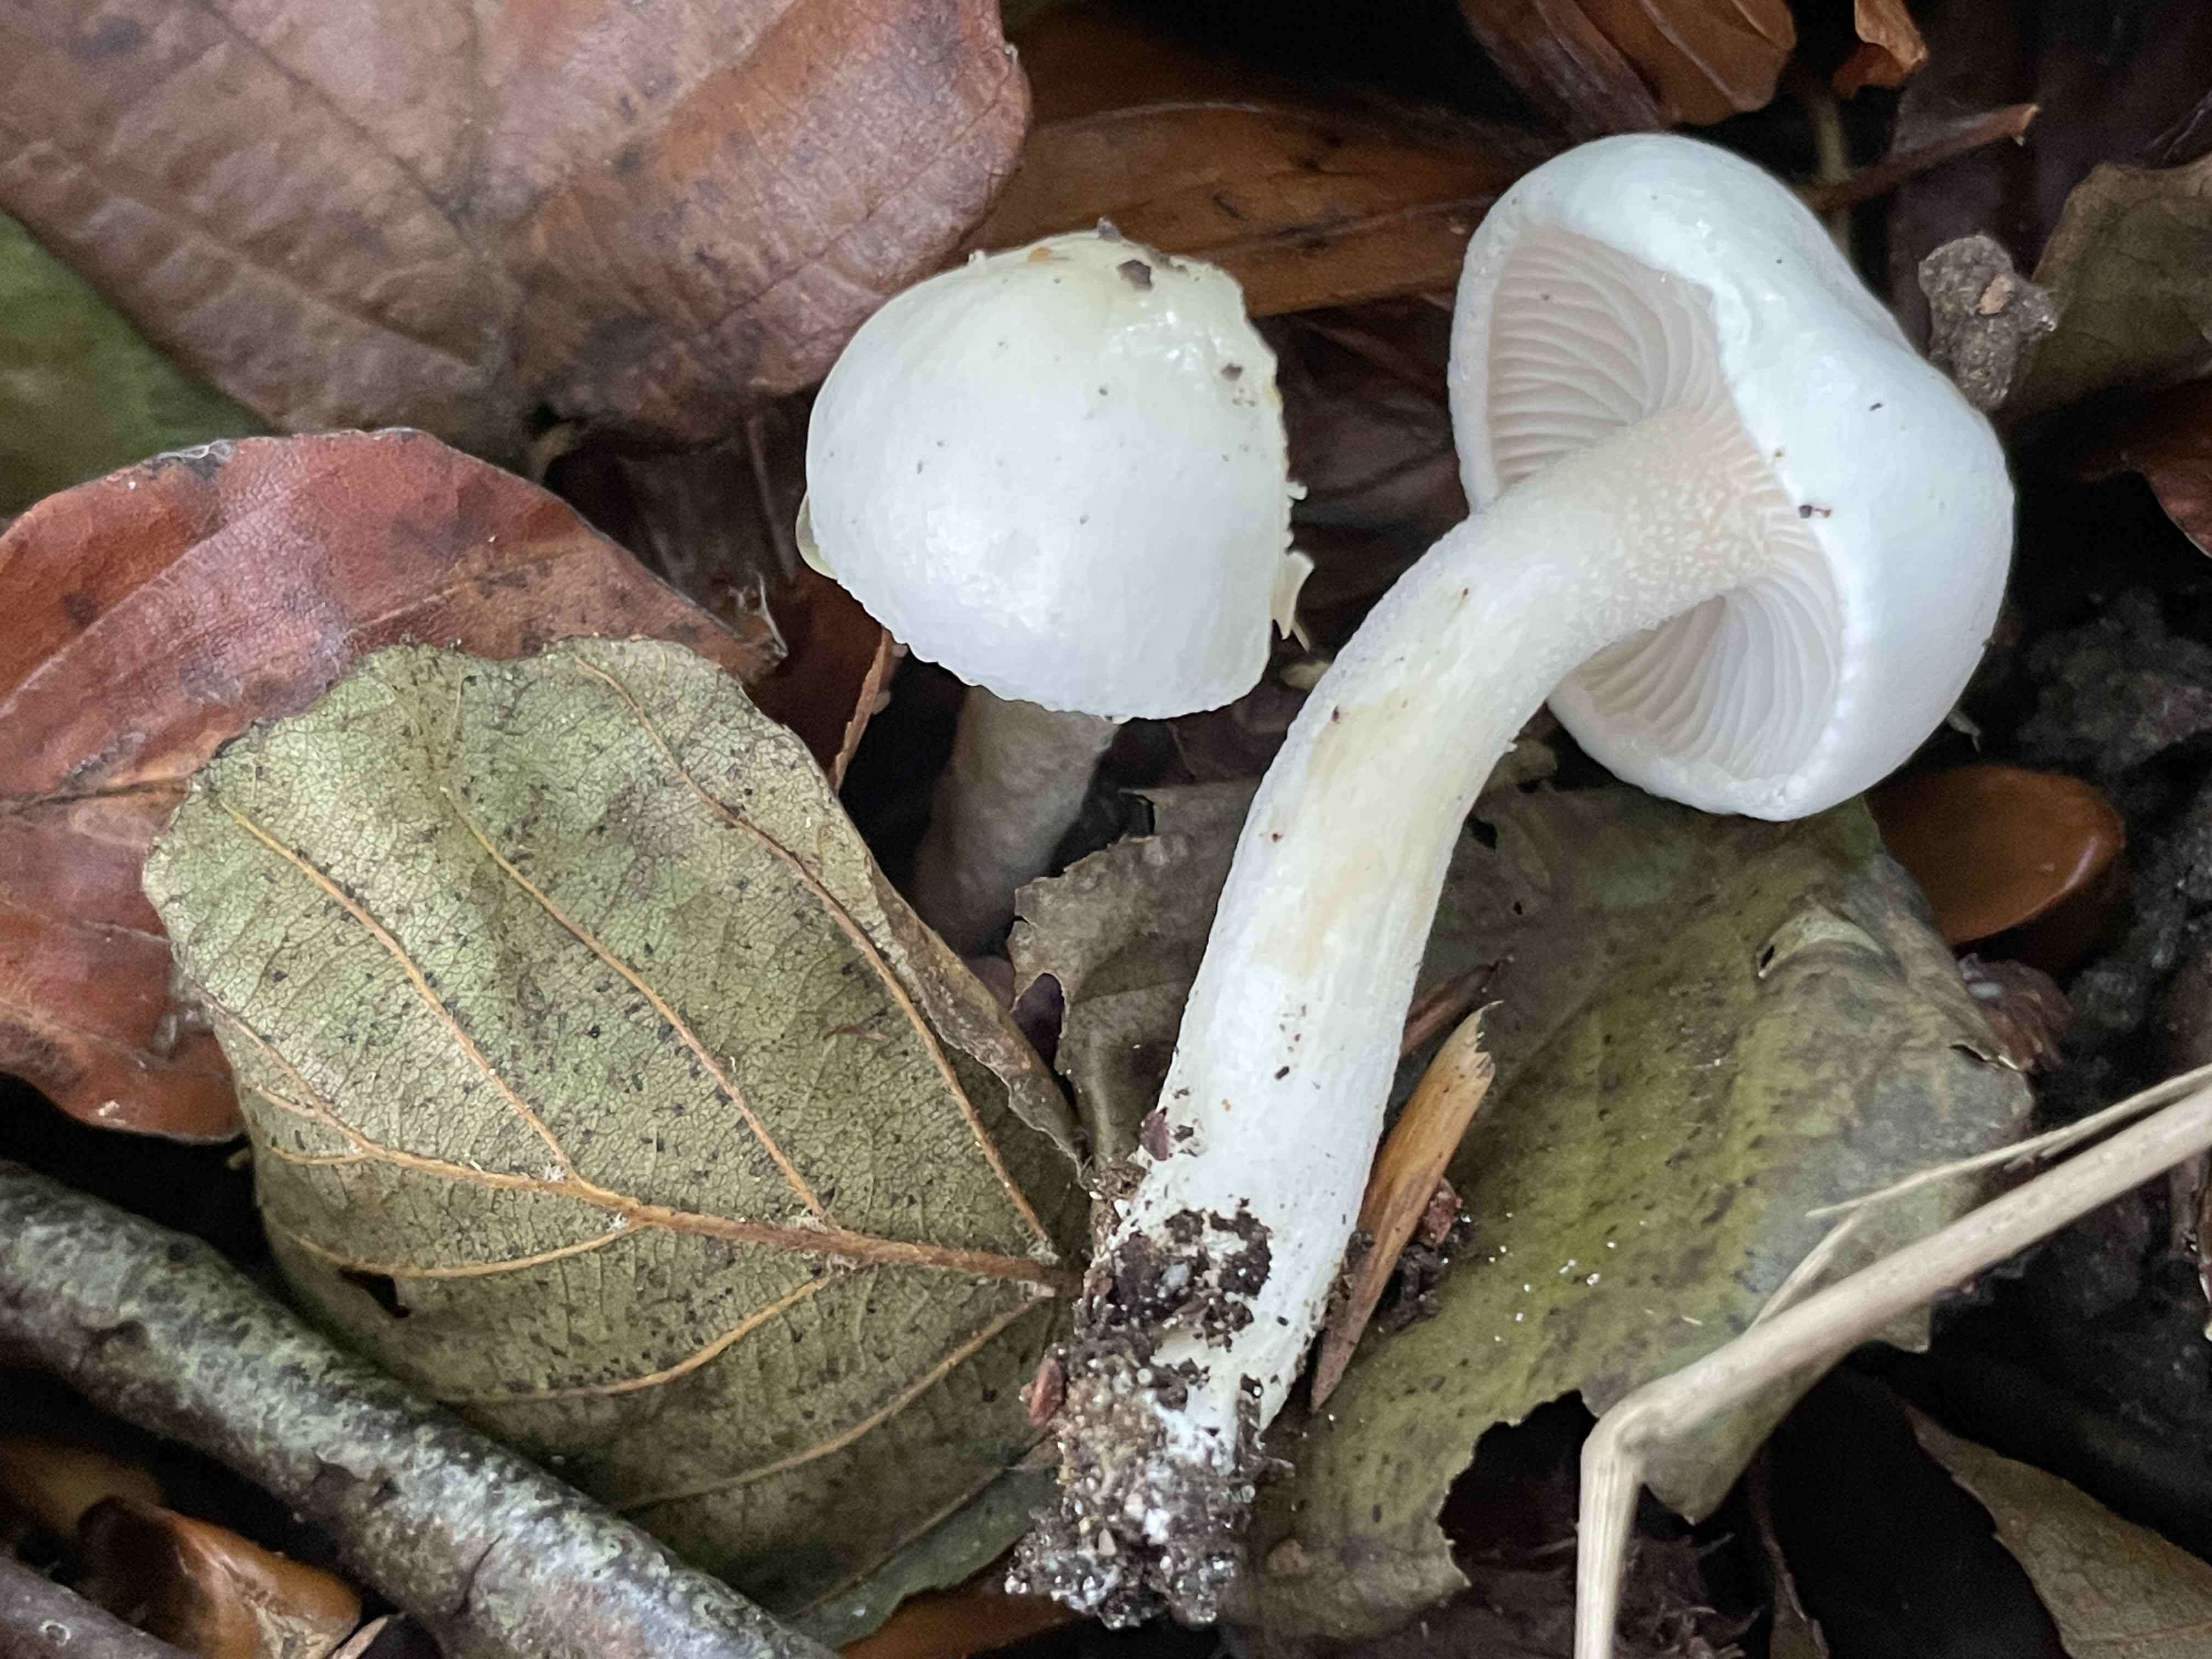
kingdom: Fungi
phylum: Basidiomycota
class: Agaricomycetes
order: Agaricales
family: Hygrophoraceae
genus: Hygrophorus
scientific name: Hygrophorus eburneus
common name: elfenbens-sneglehat
